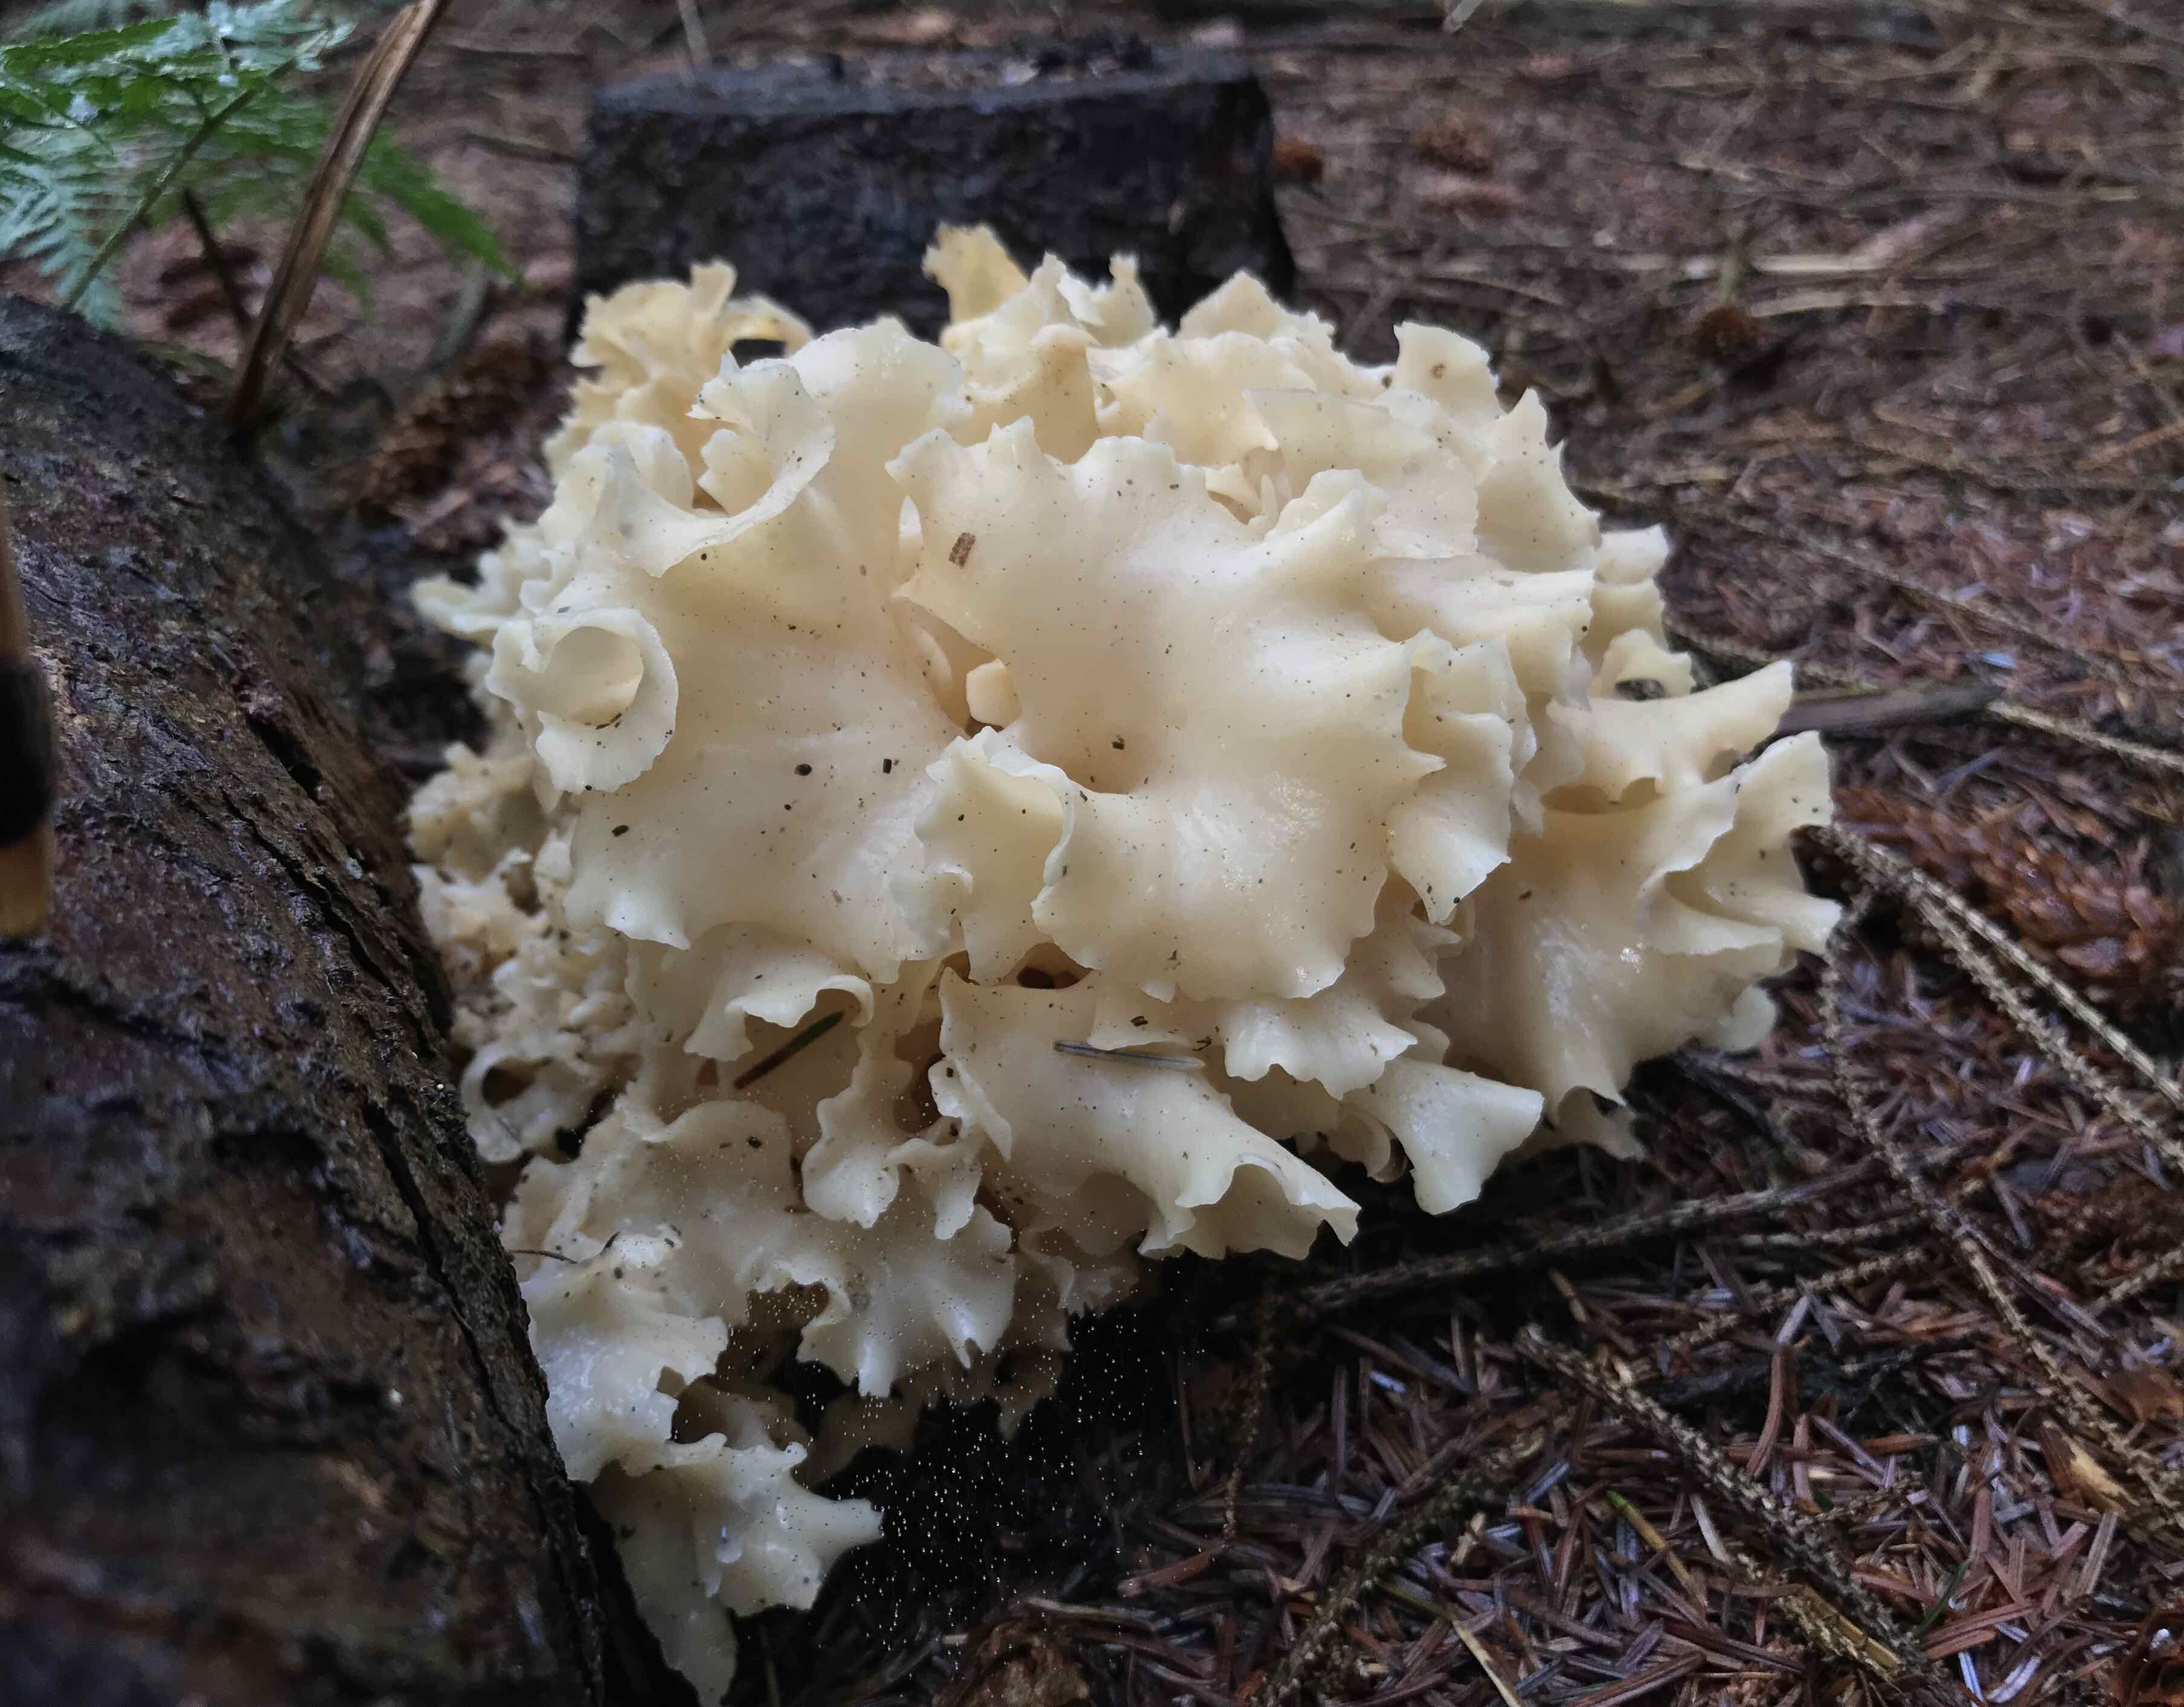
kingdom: Fungi
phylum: Basidiomycota
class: Agaricomycetes
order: Polyporales
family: Sparassidaceae
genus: Sparassis
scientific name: Sparassis crispa
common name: kruset blomkålssvamp
